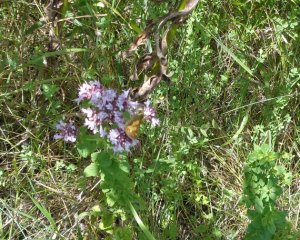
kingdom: Animalia
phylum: Arthropoda
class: Insecta
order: Lepidoptera
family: Hesperiidae
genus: Polites
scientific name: Polites coras
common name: Peck's Skipper
